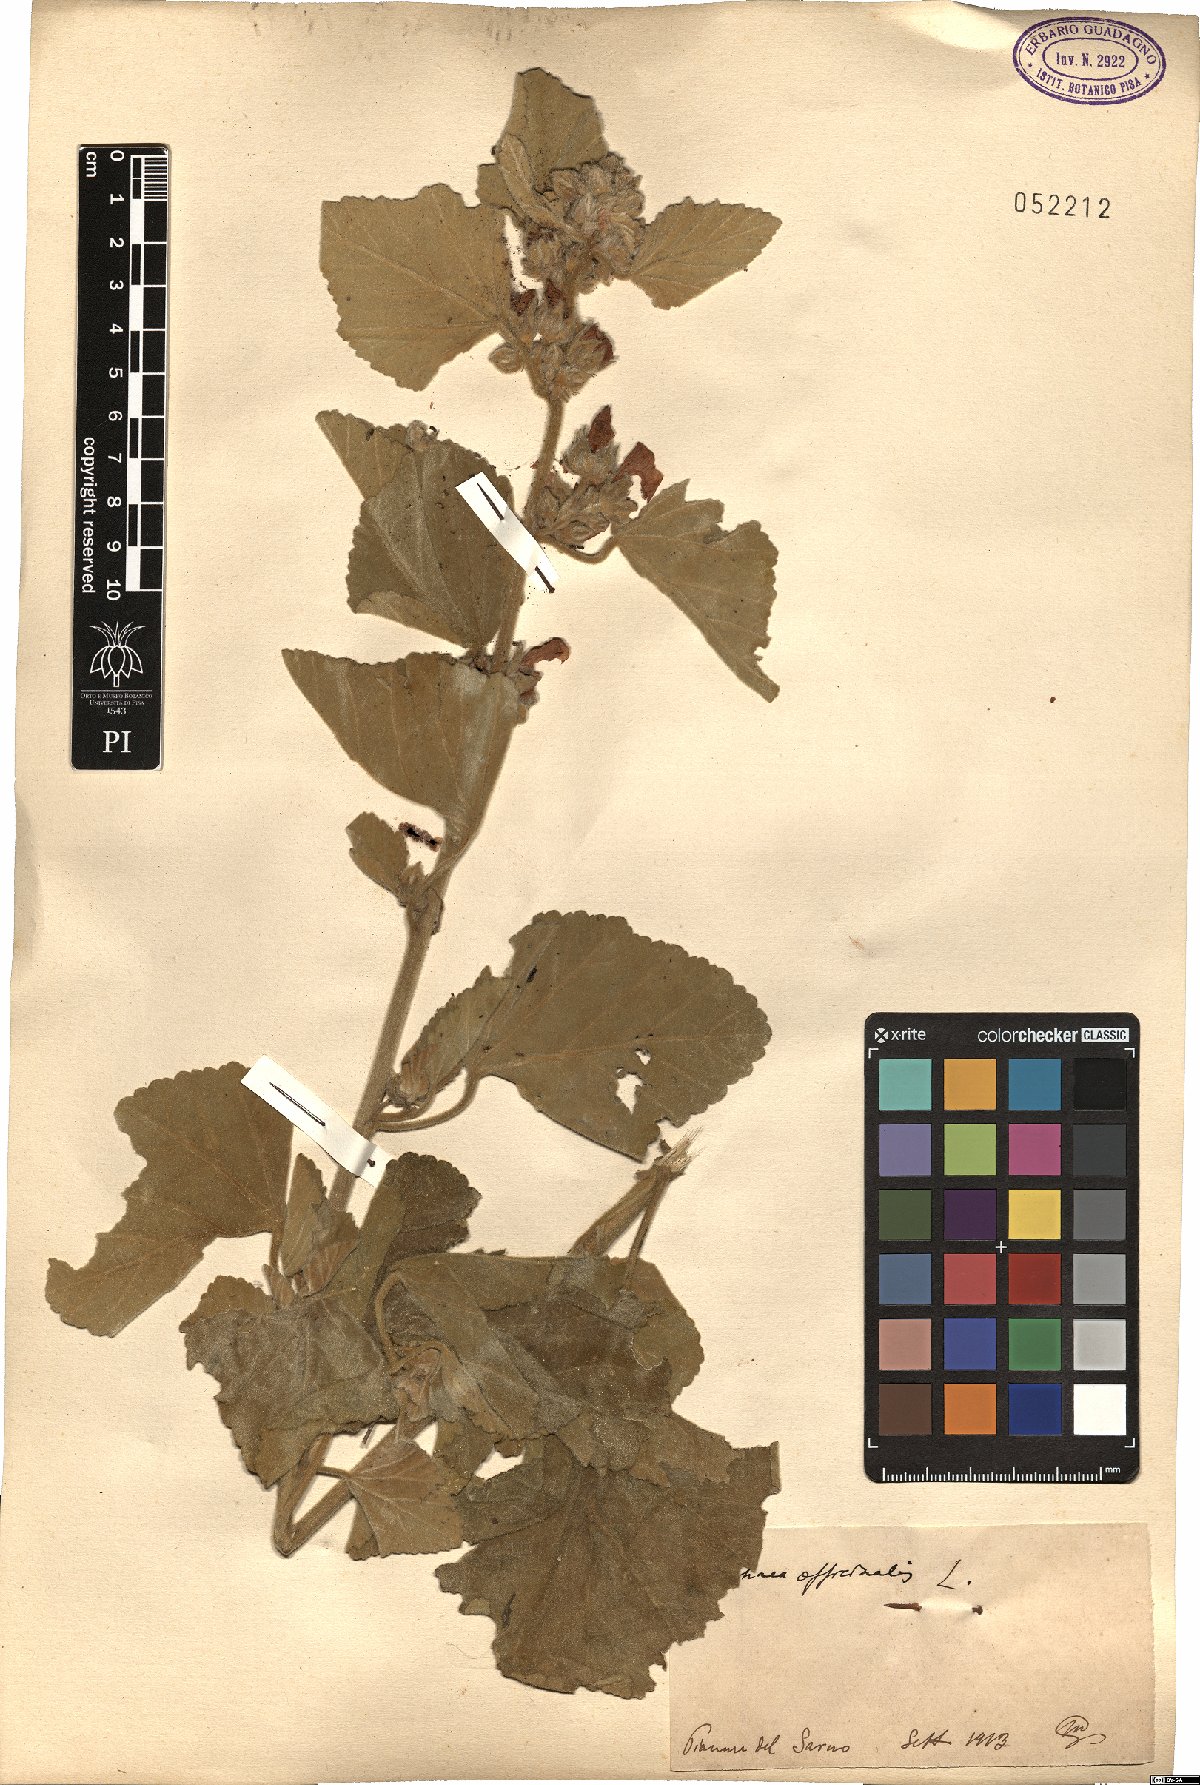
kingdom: Plantae
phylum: Tracheophyta
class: Magnoliopsida
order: Malvales
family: Malvaceae
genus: Althaea
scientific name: Althaea officinalis
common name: Marsh-mallow
